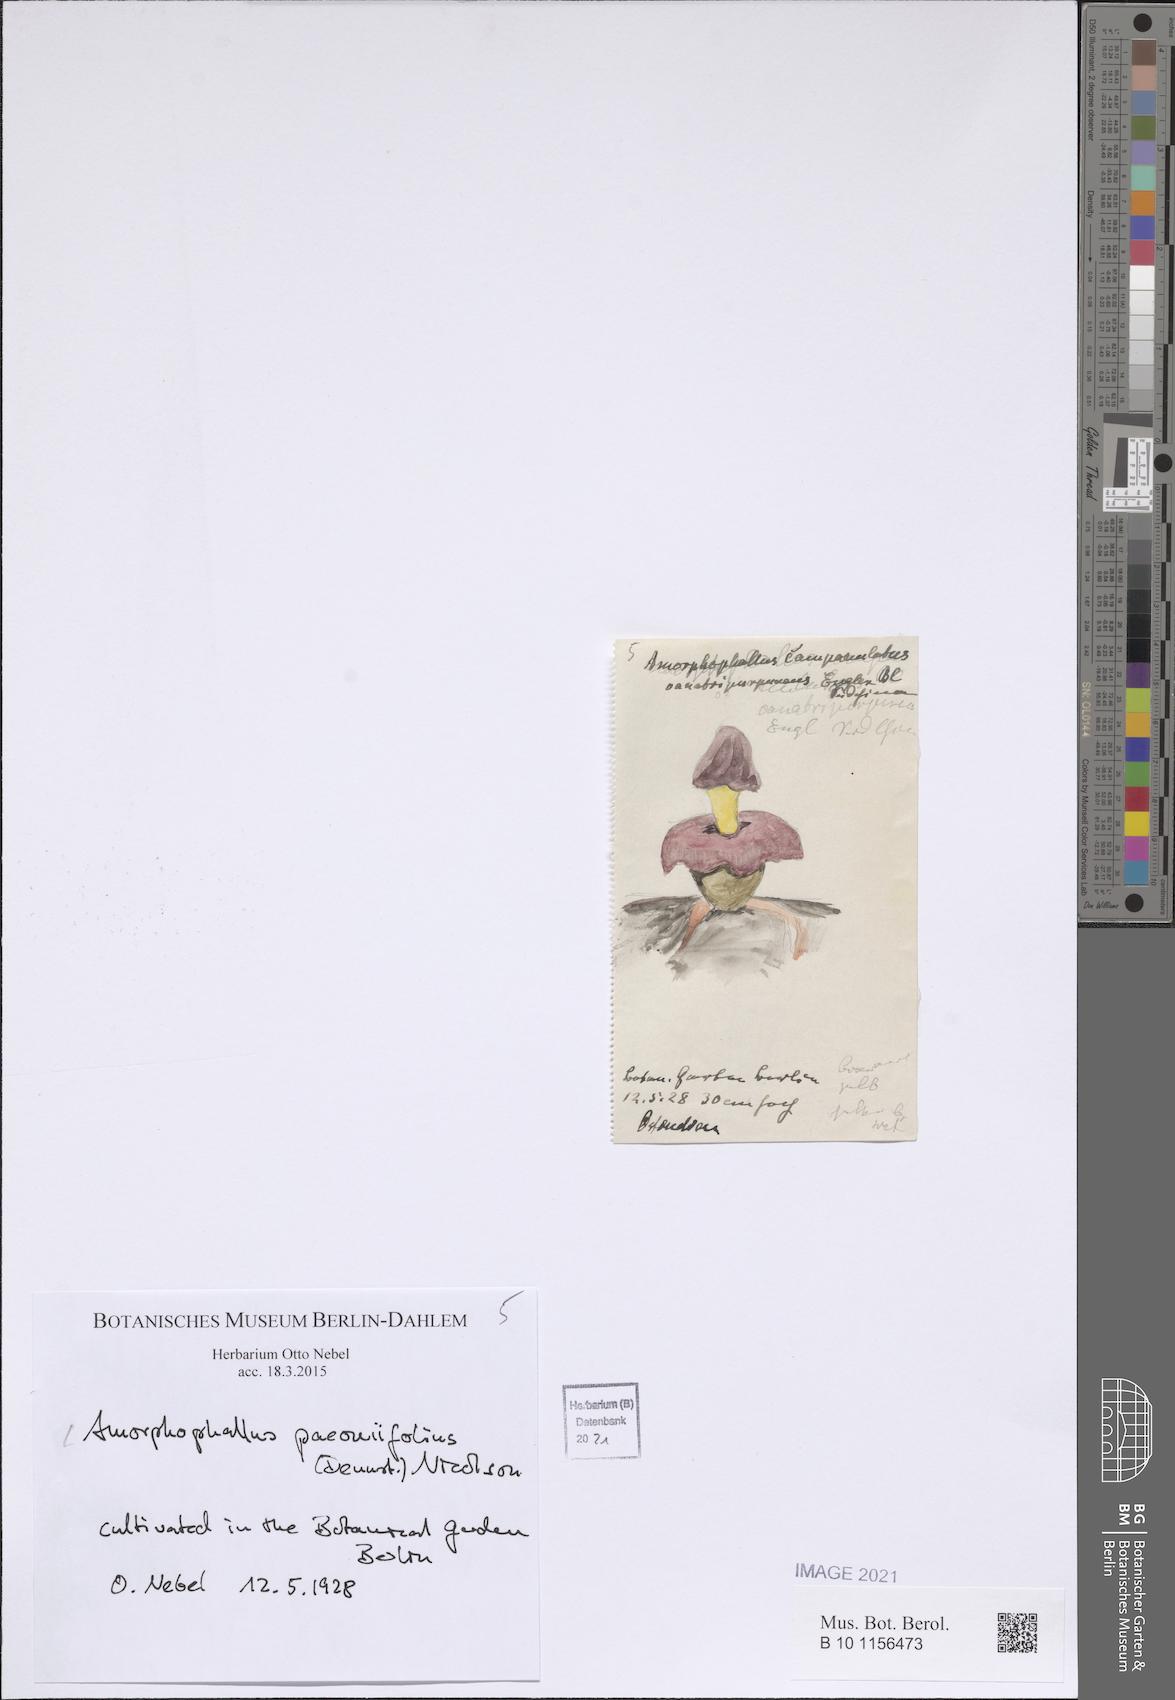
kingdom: Plantae
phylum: Tracheophyta
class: Liliopsida
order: Alismatales
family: Araceae
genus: Amorphophallus
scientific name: Amorphophallus paeoniifolius
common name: Telinga-potato
